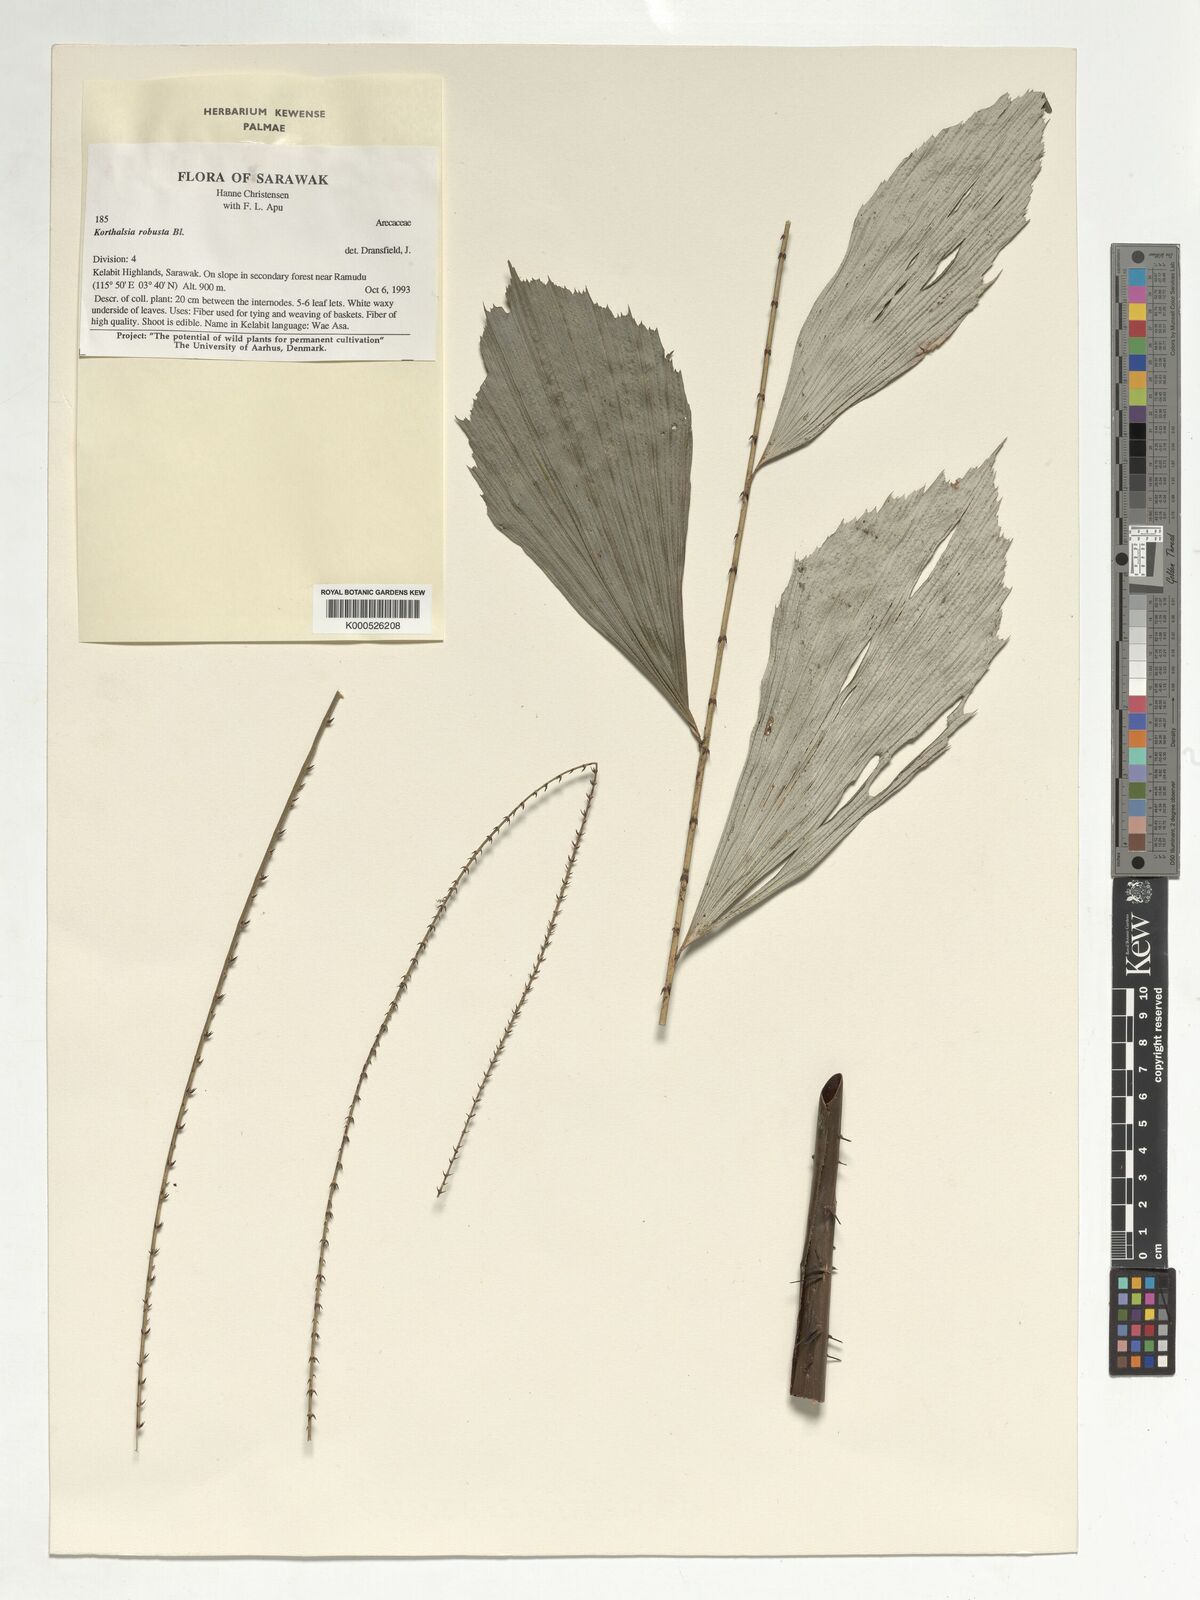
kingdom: Plantae
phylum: Tracheophyta
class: Liliopsida
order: Arecales
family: Arecaceae
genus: Korthalsia
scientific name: Korthalsia robusta
